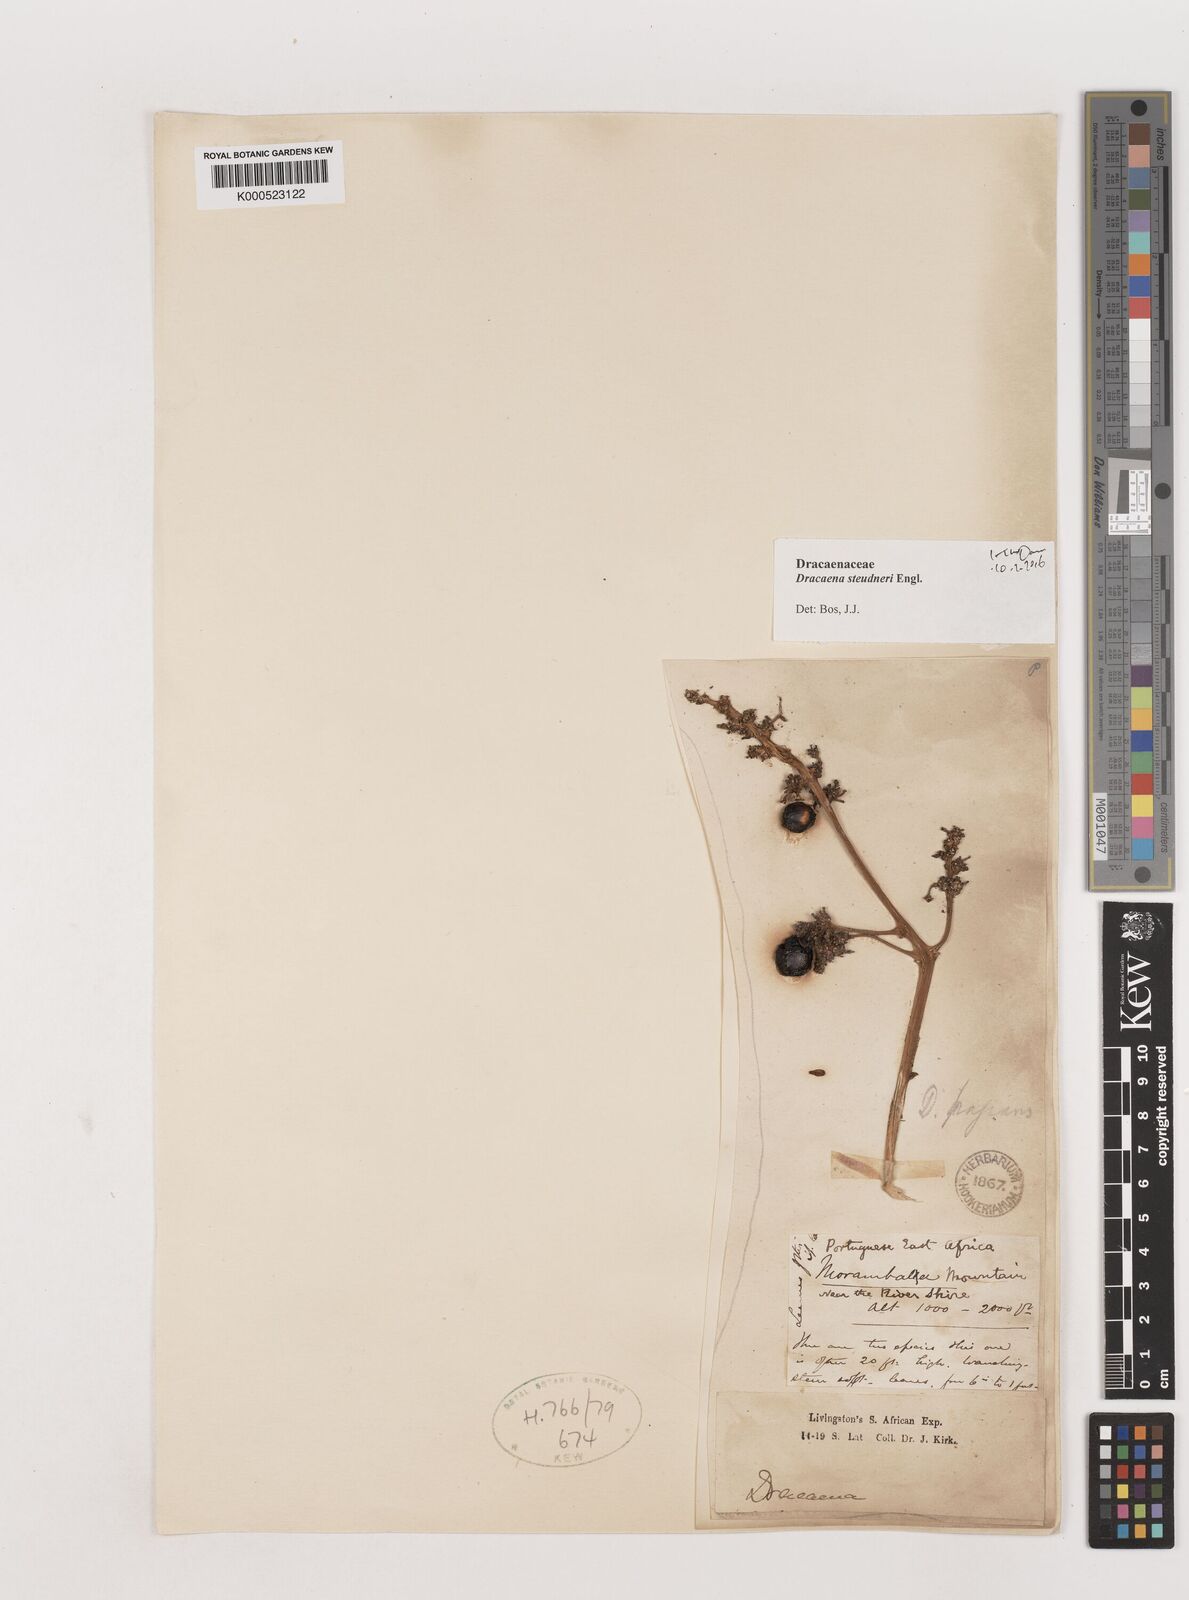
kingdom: Plantae
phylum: Tracheophyta
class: Liliopsida
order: Asparagales
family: Asparagaceae
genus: Dracaena
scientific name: Dracaena steudneri
